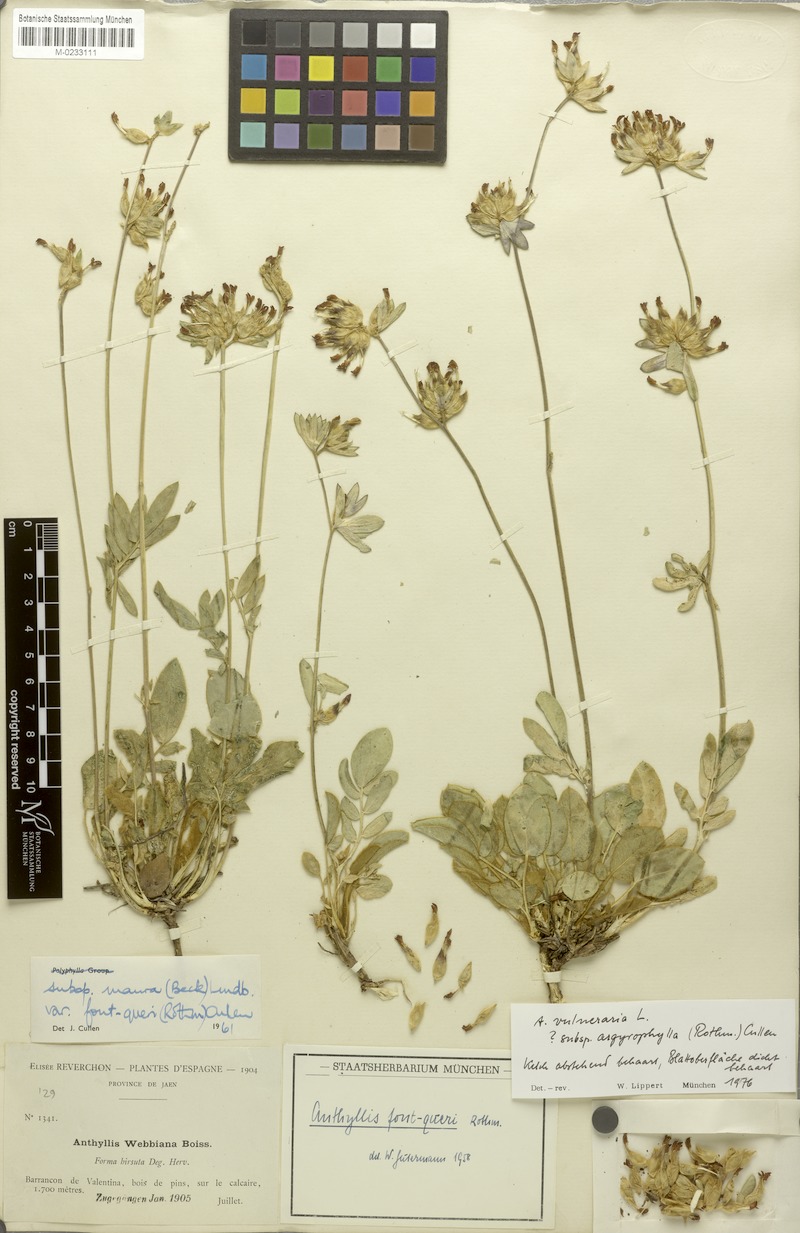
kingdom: Plantae
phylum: Tracheophyta
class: Magnoliopsida
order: Fabales
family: Fabaceae
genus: Anthyllis
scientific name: Anthyllis vulneraria
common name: Kidney vetch
